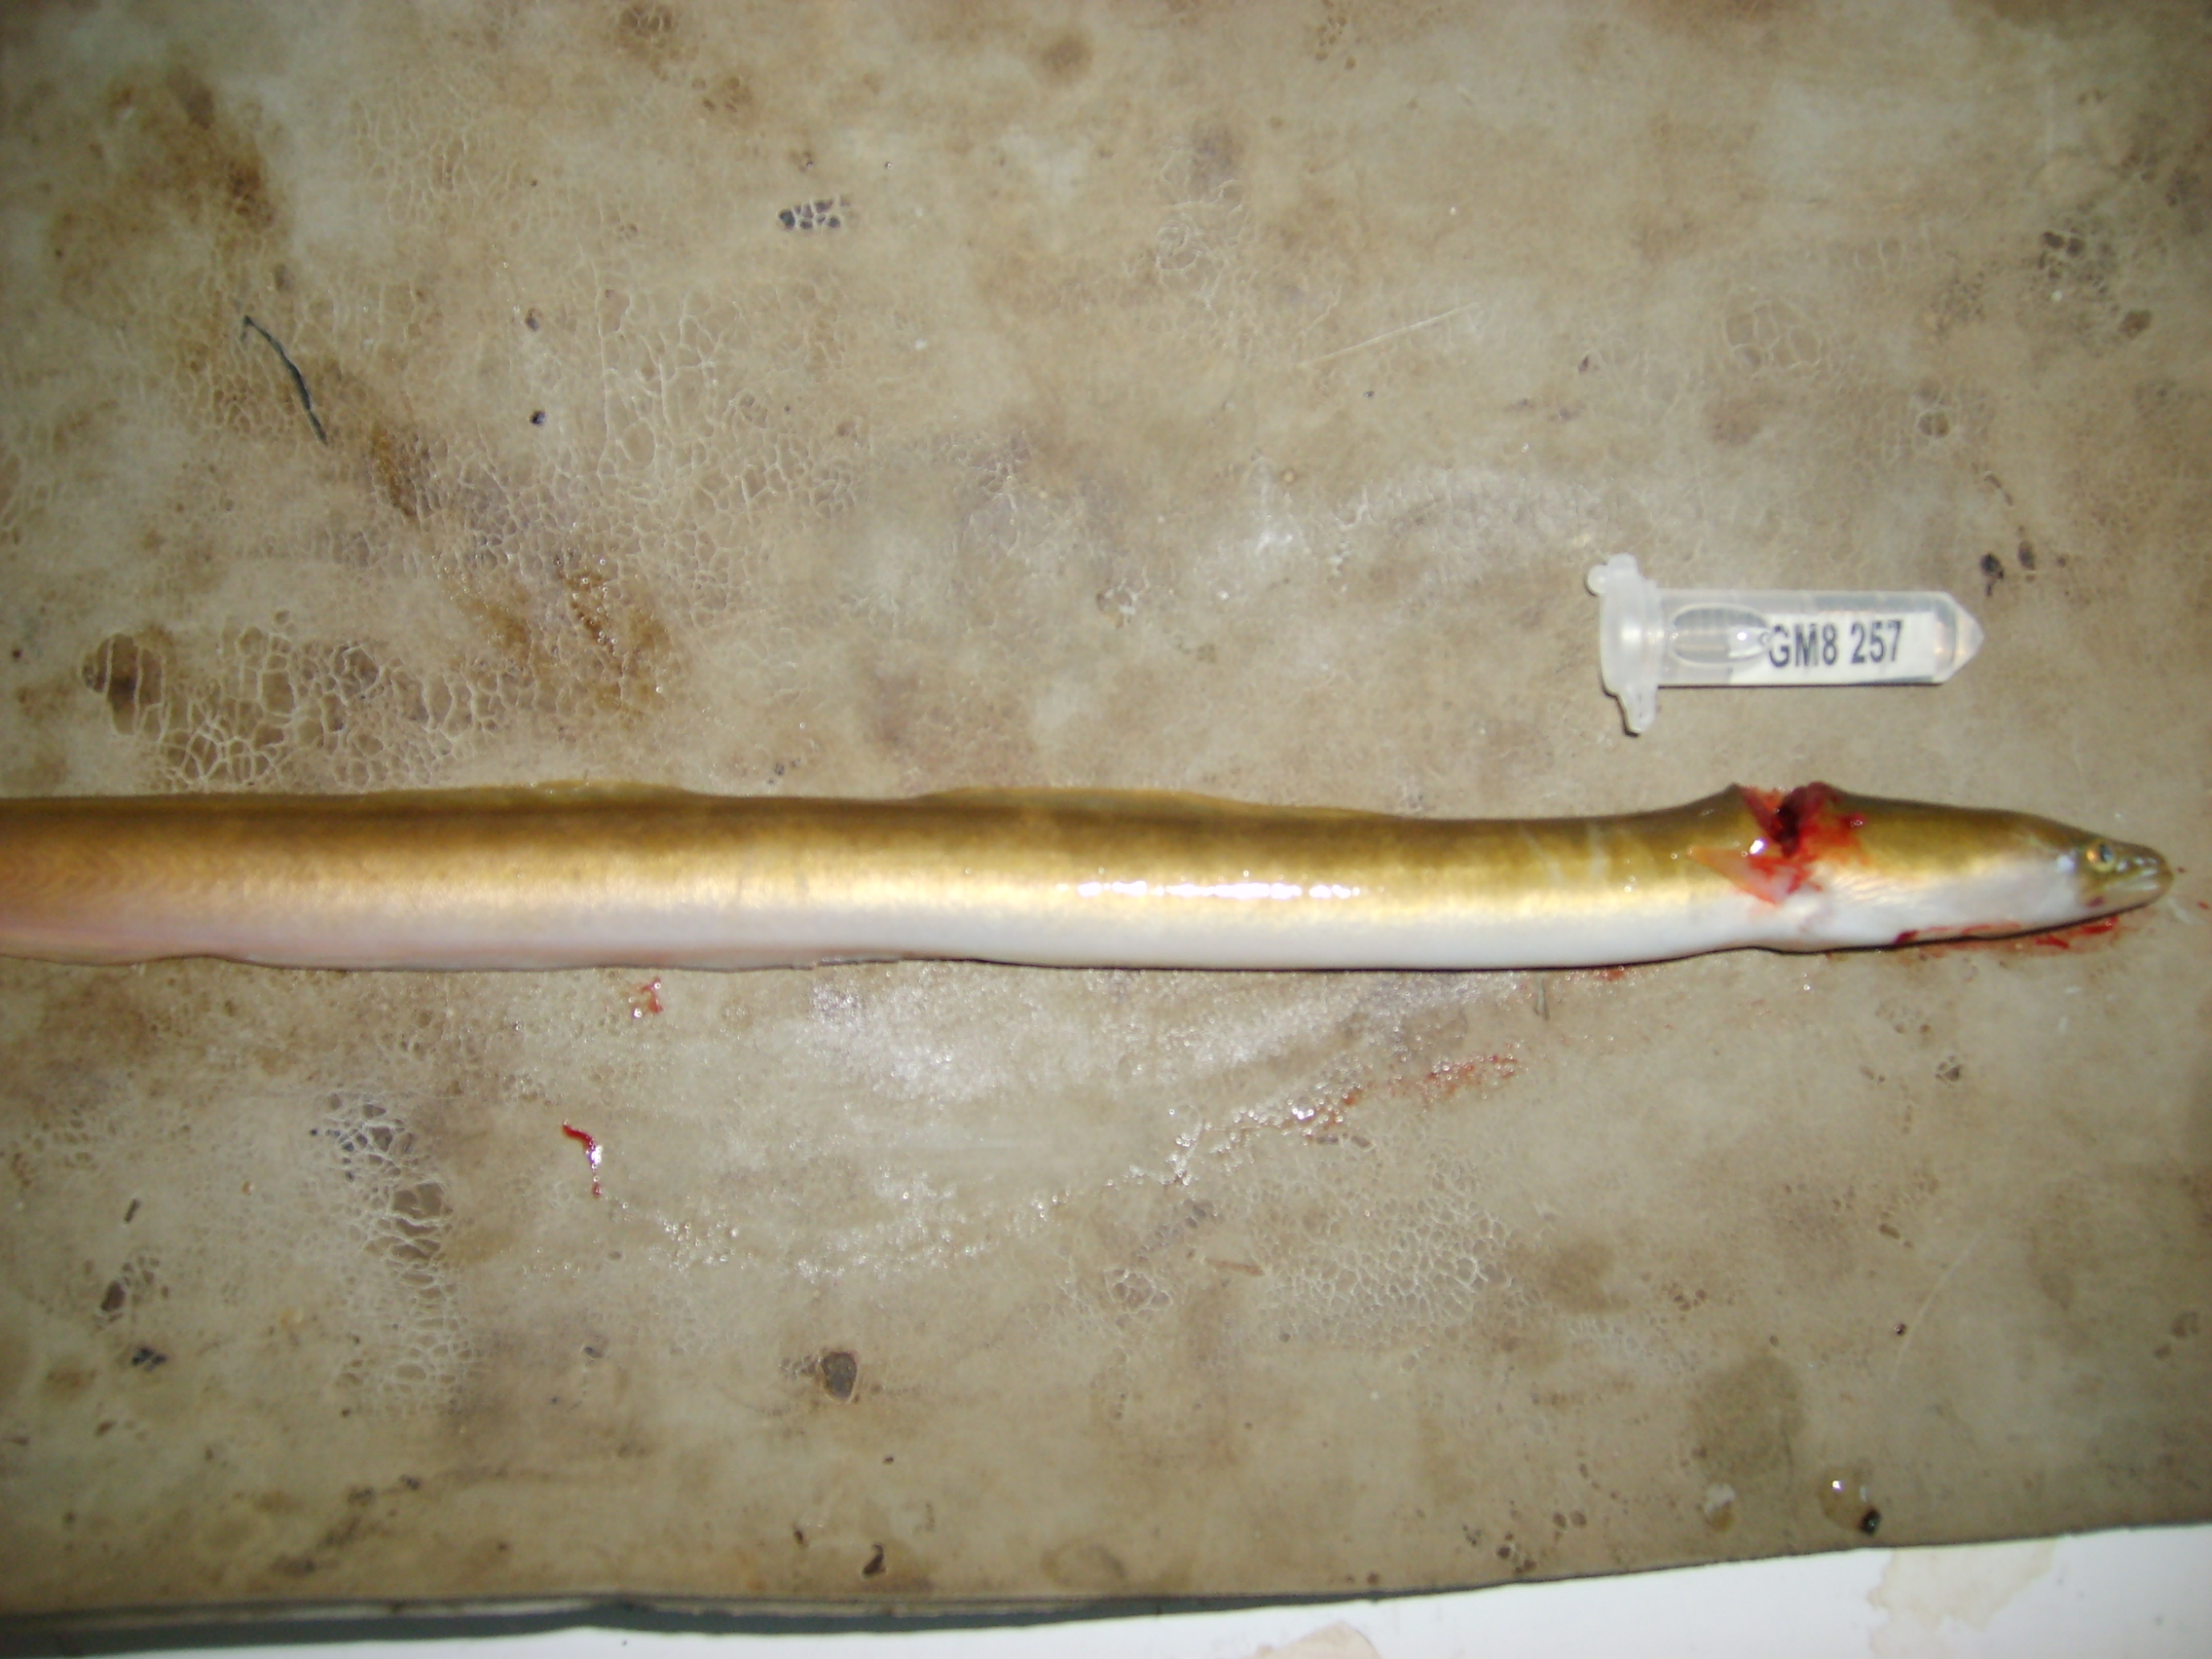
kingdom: Animalia
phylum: Chordata
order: Anguilliformes
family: Anguillidae
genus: Anguilla
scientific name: Anguilla mossambica
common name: African longfin eel
